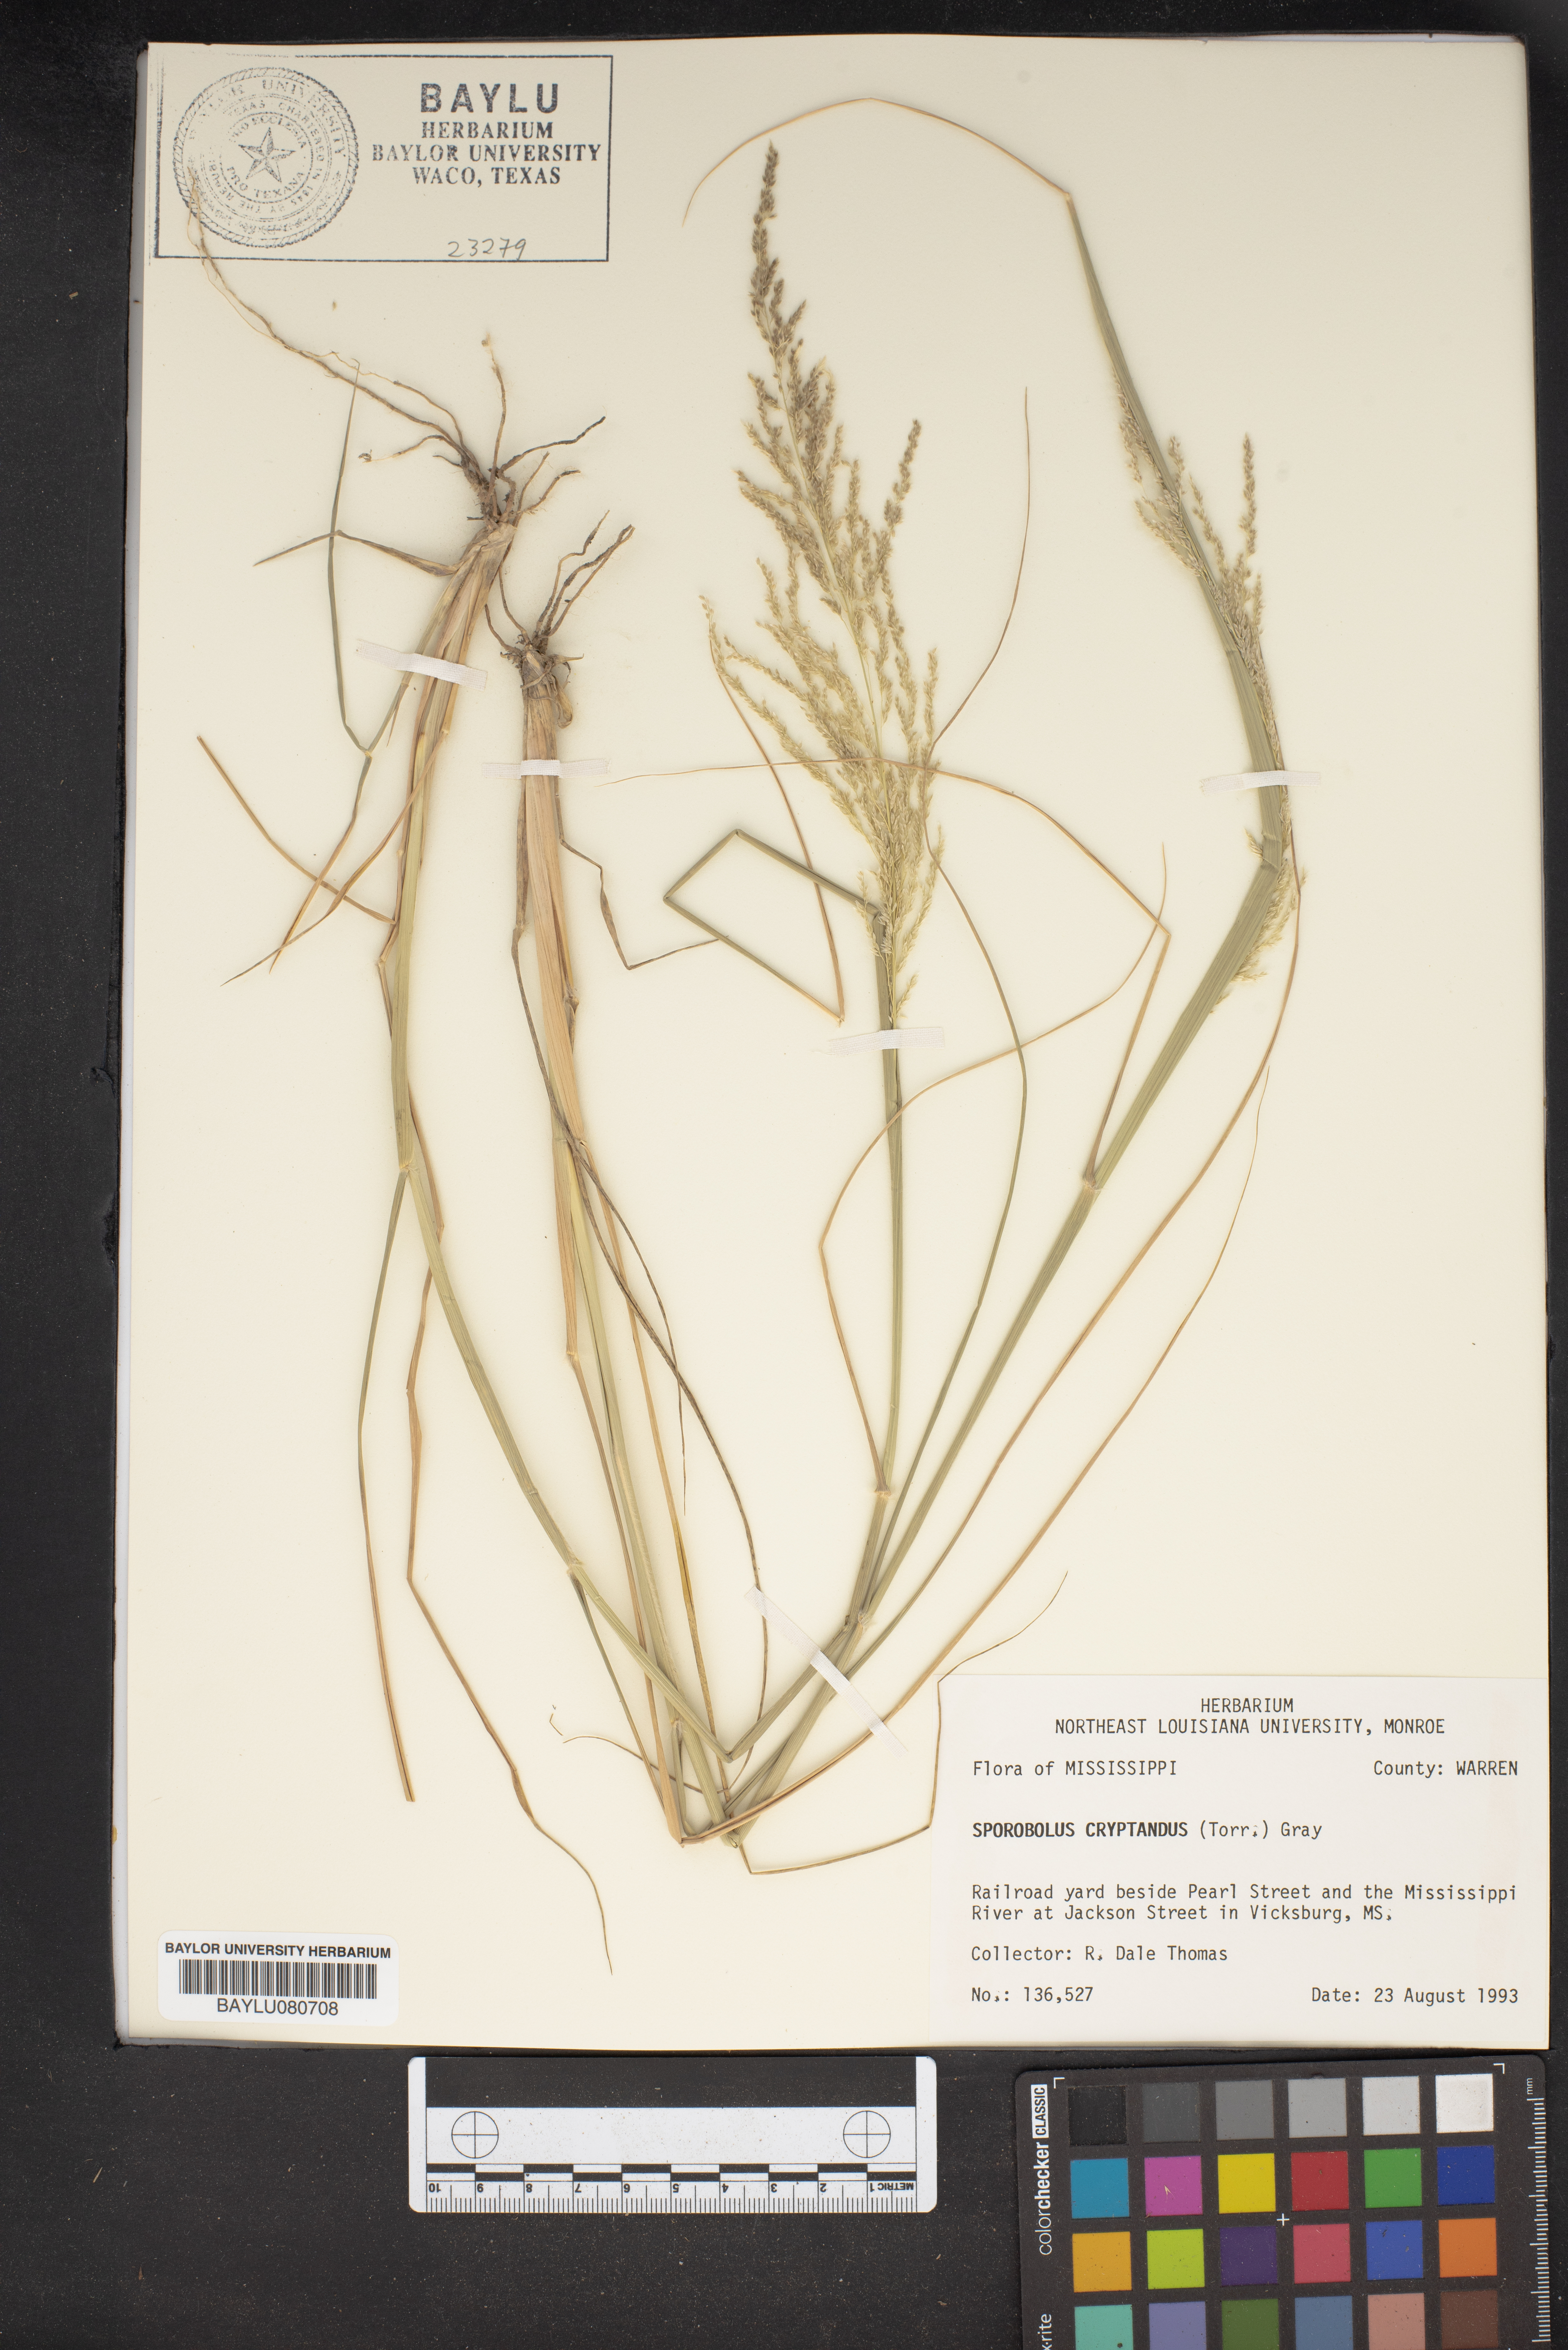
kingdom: Plantae
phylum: Tracheophyta
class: Liliopsida
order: Poales
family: Poaceae
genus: Sporobolus
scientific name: Sporobolus cryptandrus
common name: Sand dropseed
